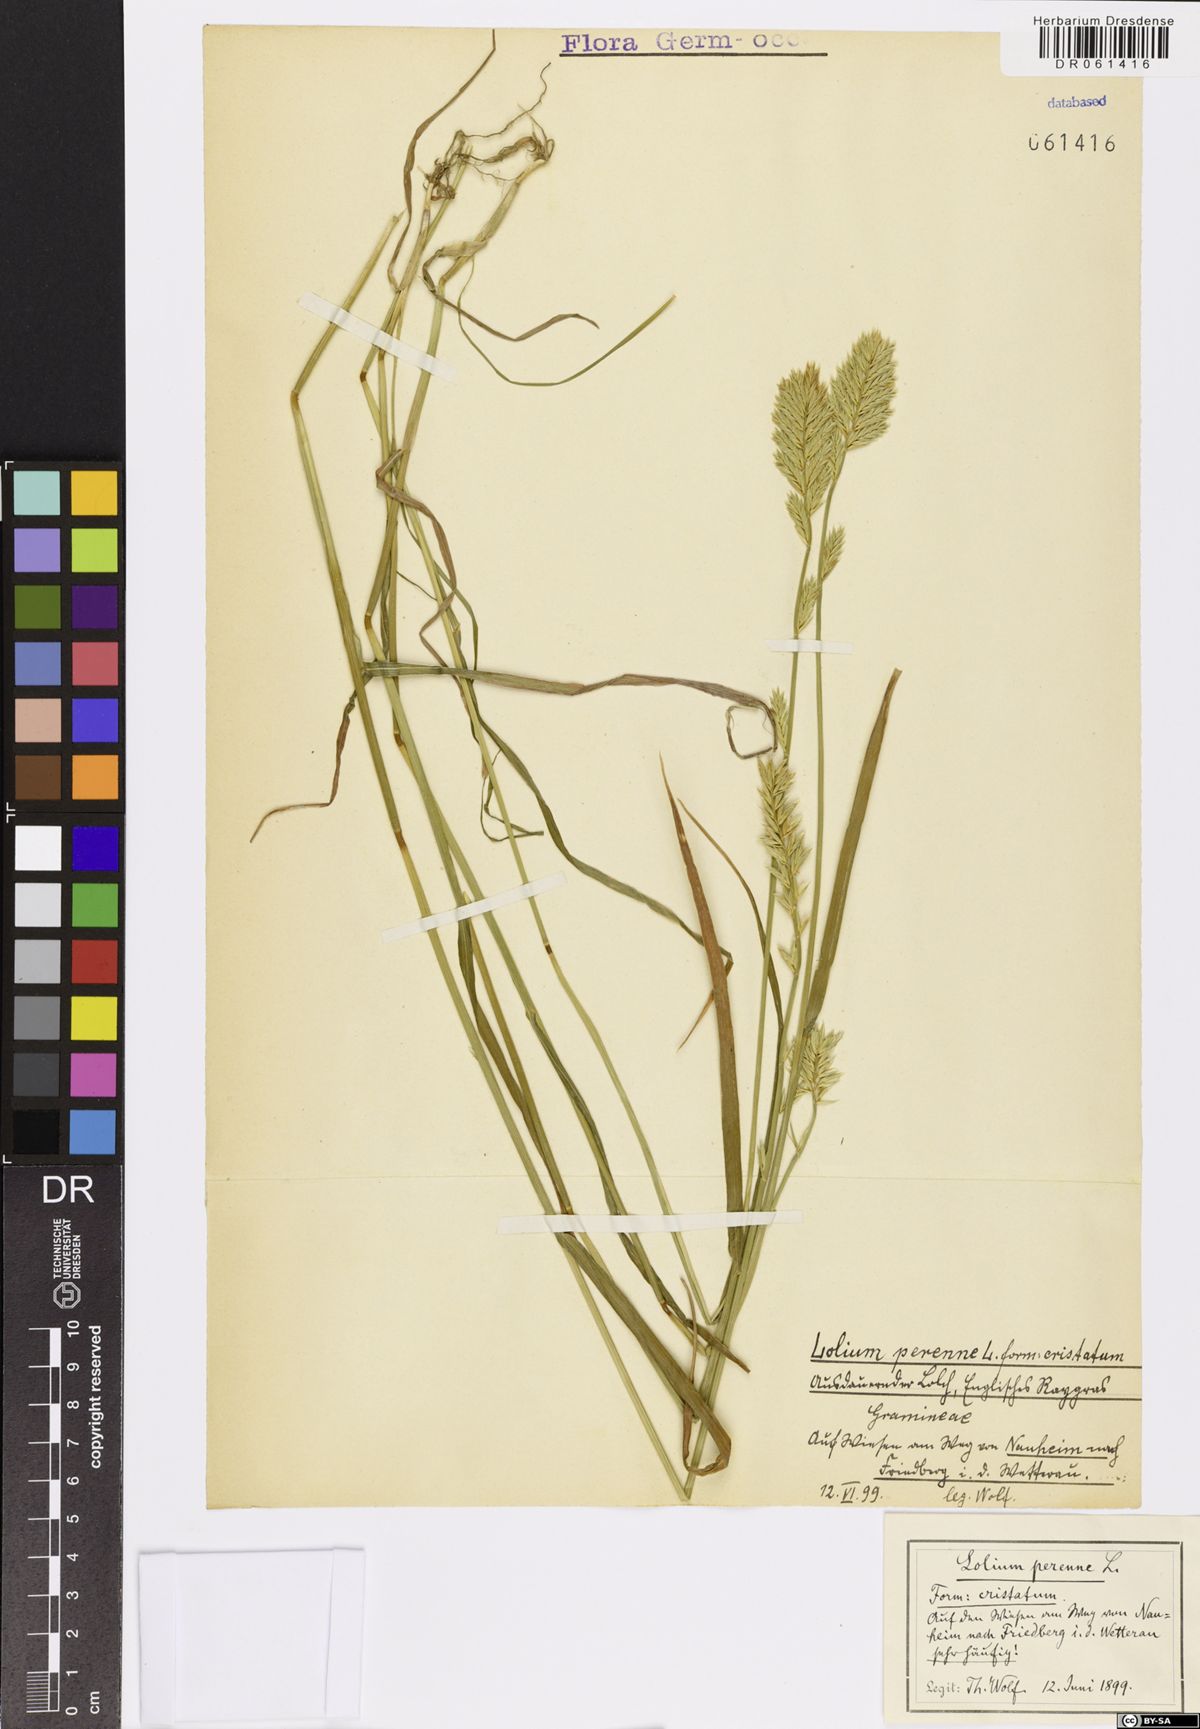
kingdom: Plantae
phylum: Tracheophyta
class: Liliopsida
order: Poales
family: Poaceae
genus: Lolium
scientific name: Lolium perenne
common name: Perennial ryegrass
